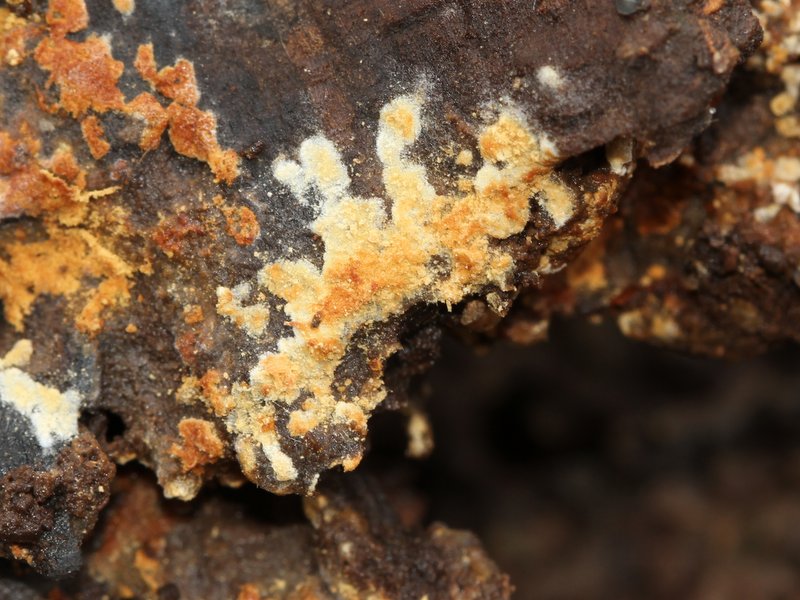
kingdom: Fungi
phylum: Basidiomycota
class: Agaricomycetes
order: Cantharellales
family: Botryobasidiaceae
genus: Botryobasidium
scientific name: Botryobasidium aureum
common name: gylden spindhinde
